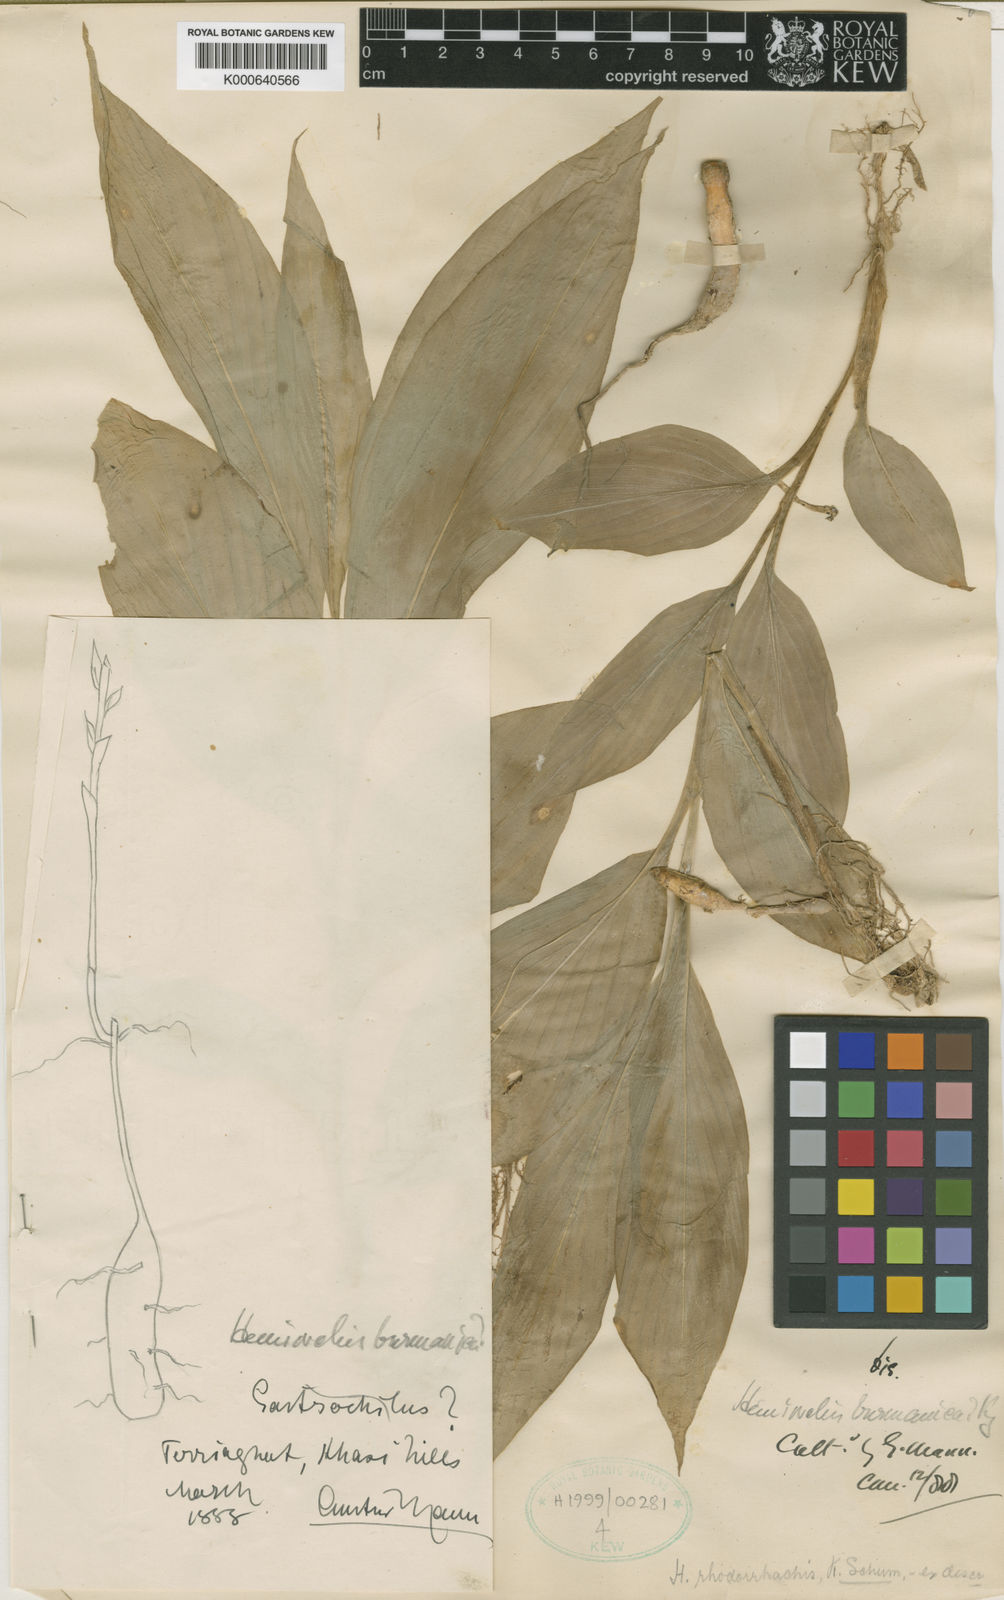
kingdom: Plantae
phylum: Tracheophyta
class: Liliopsida
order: Zingiberales
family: Zingiberaceae
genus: Hemiorchis
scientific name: Hemiorchis rhodorrhachis
